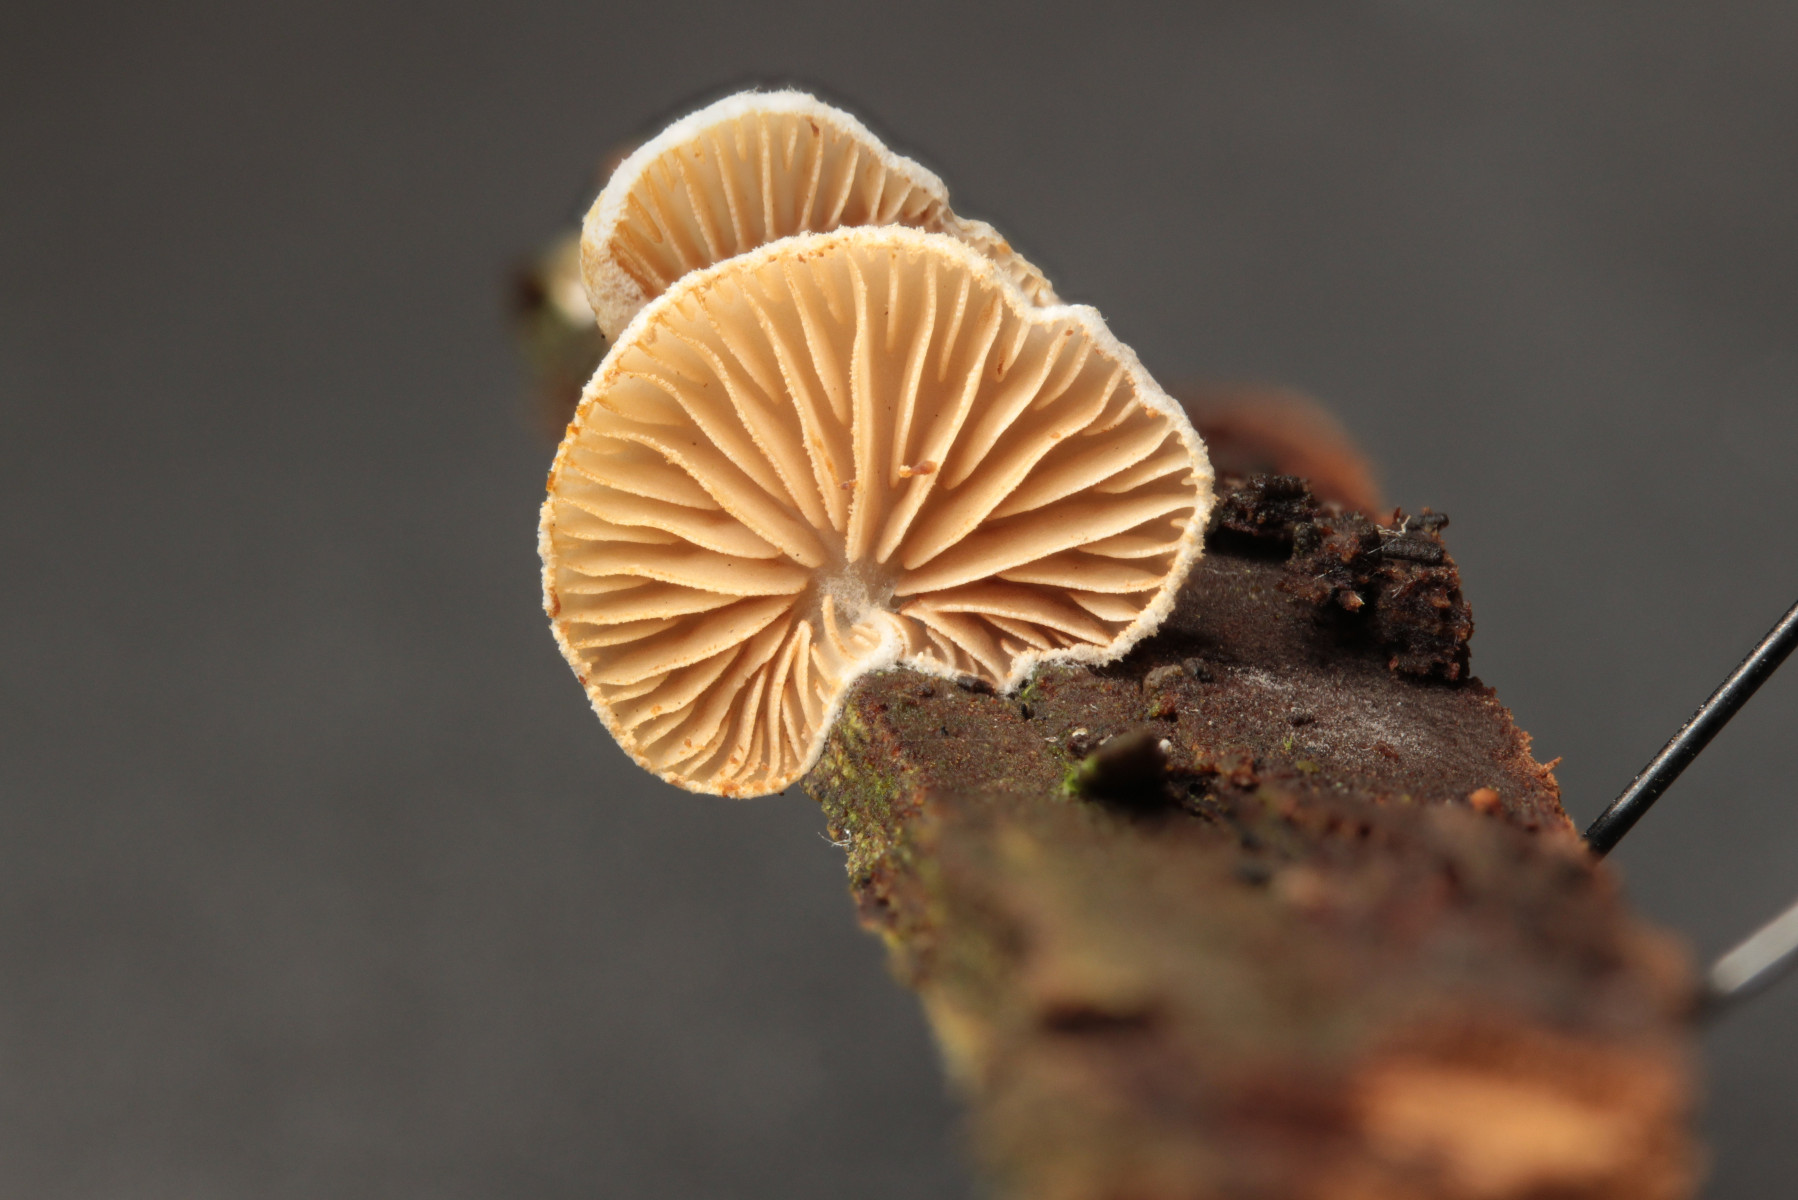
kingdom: Fungi
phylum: Basidiomycota
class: Agaricomycetes
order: Agaricales
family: Crepidotaceae
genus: Crepidotus
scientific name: Crepidotus
